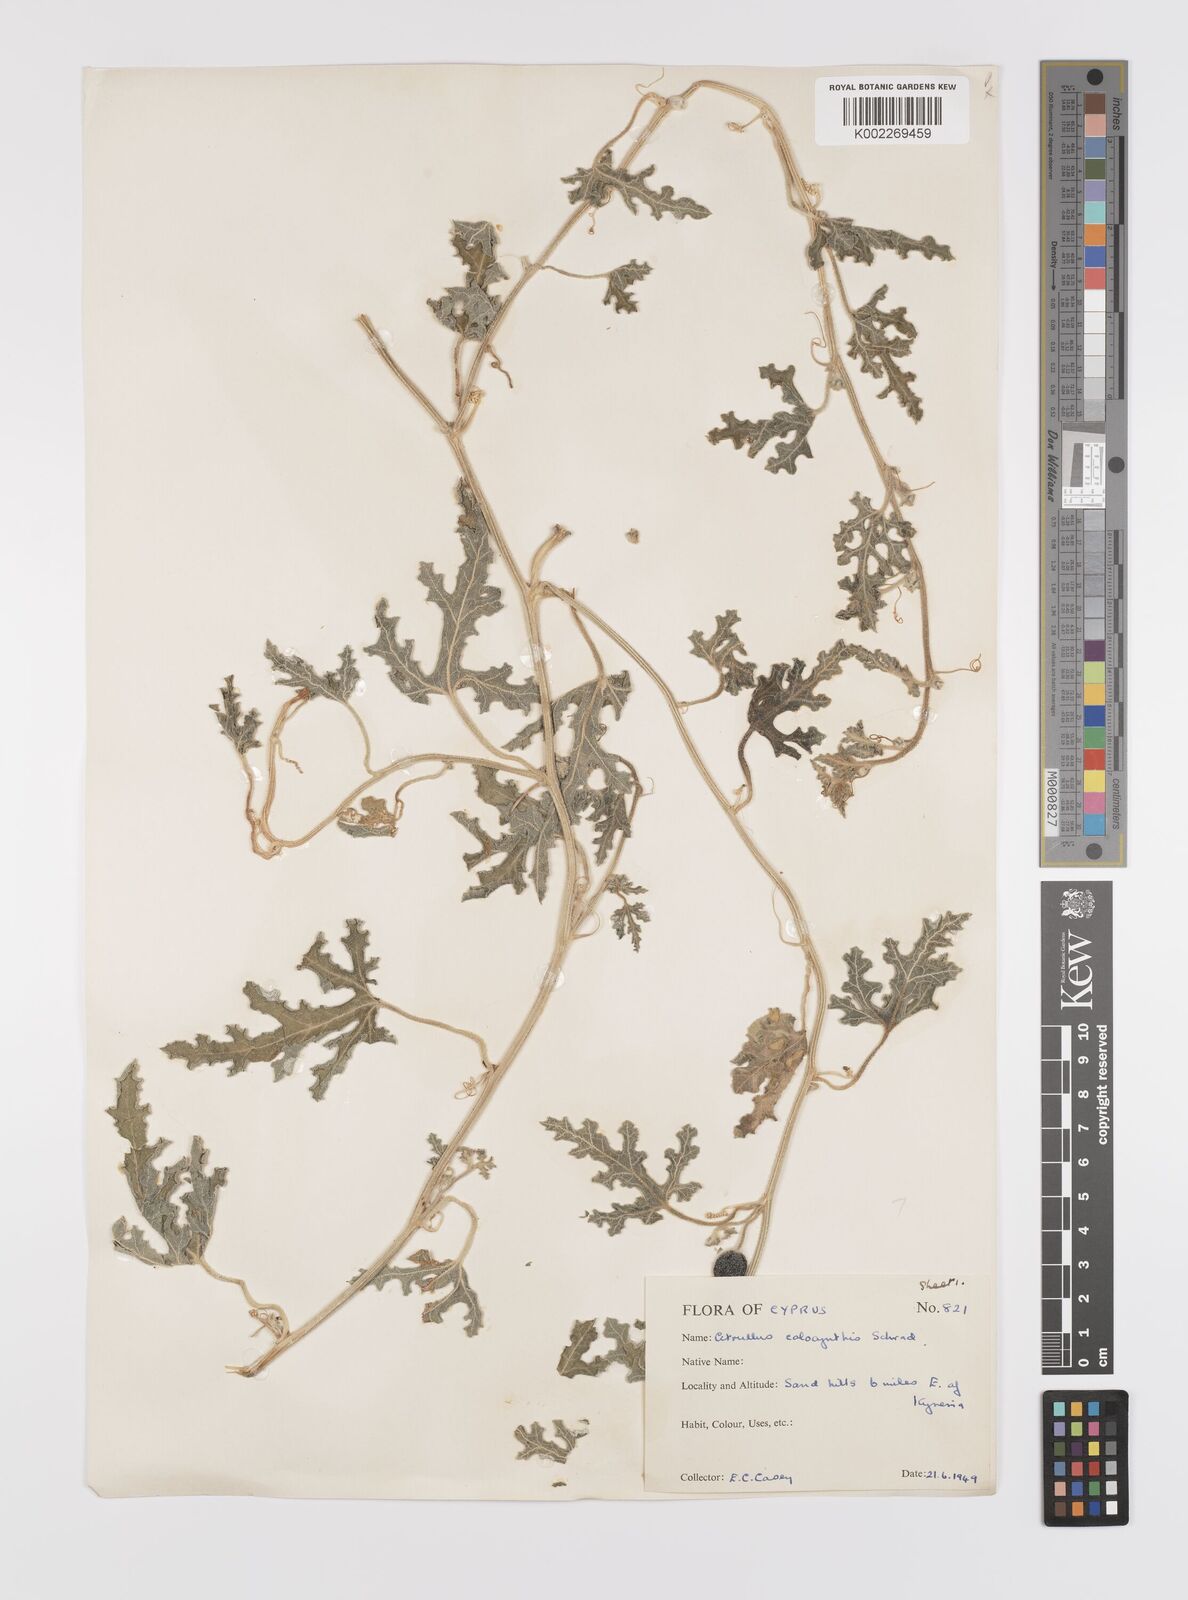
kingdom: Plantae
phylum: Tracheophyta
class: Magnoliopsida
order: Cucurbitales
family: Cucurbitaceae
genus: Citrullus
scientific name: Citrullus colocynthis
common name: Colocynth
